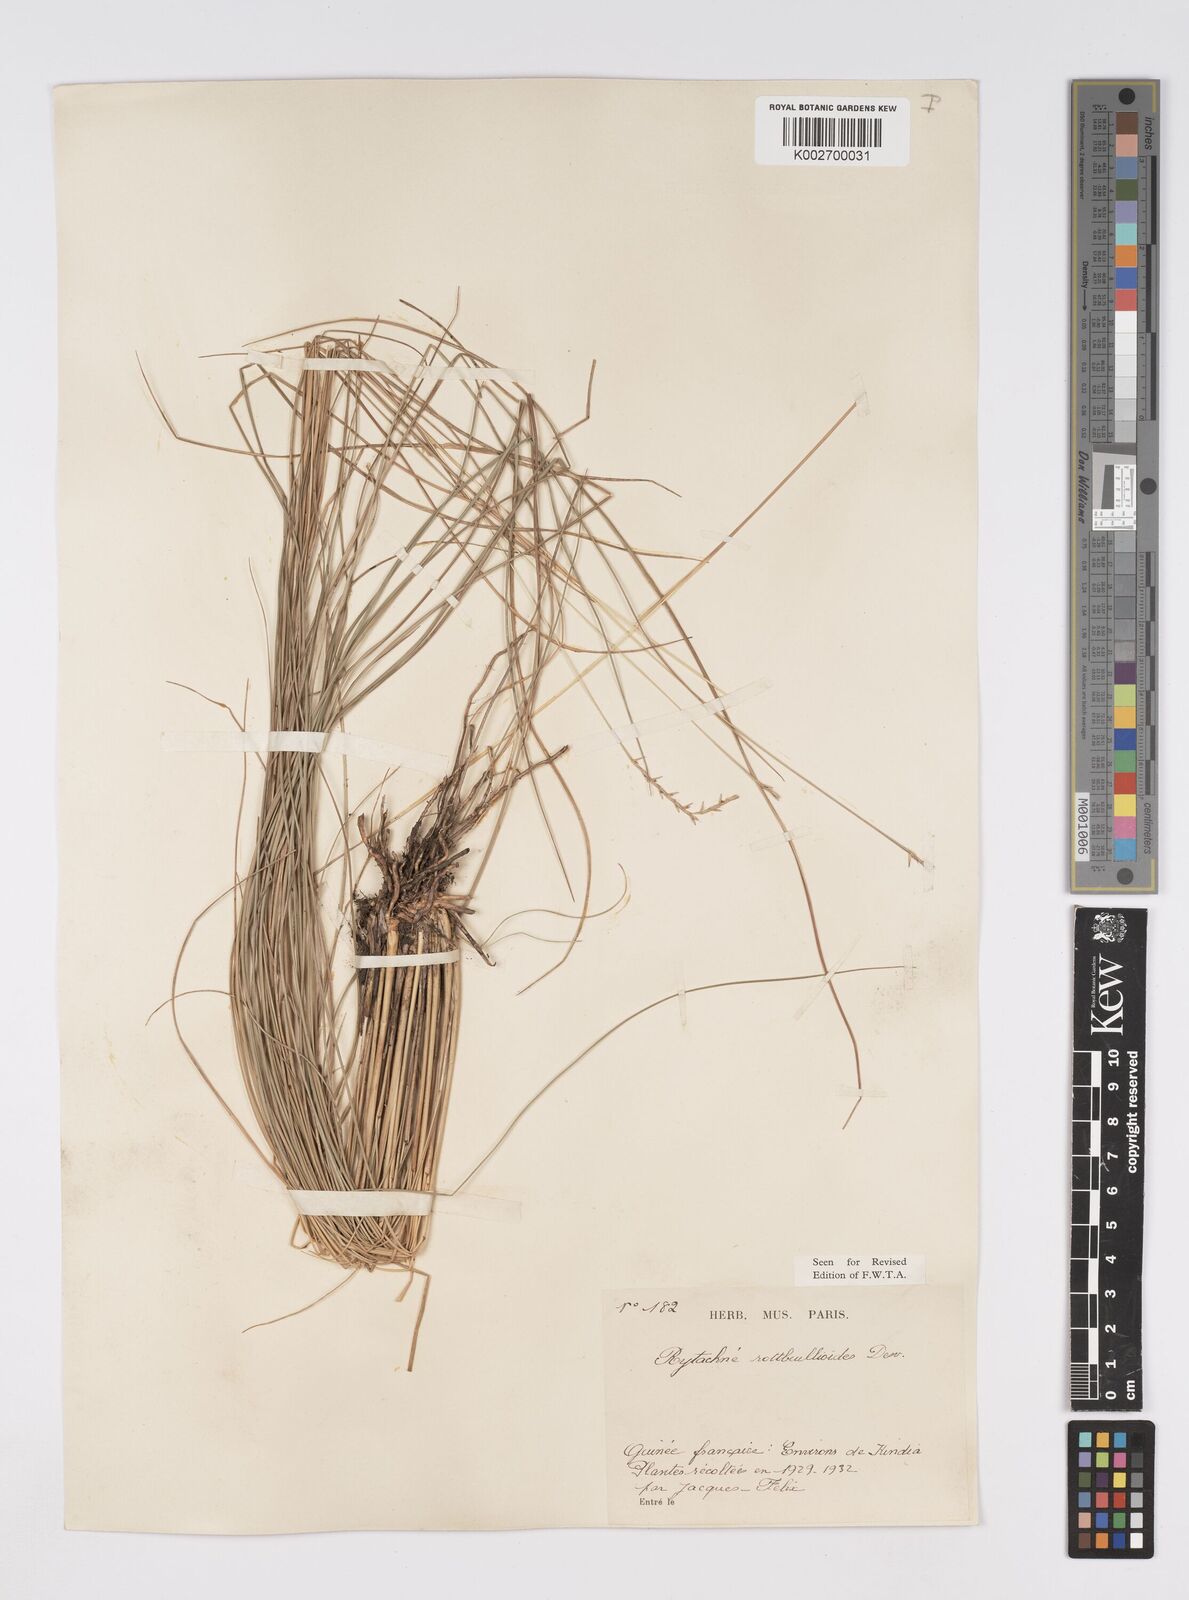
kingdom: Plantae
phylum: Tracheophyta
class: Liliopsida
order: Poales
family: Poaceae
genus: Rhytachne
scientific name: Rhytachne rottboellioides
